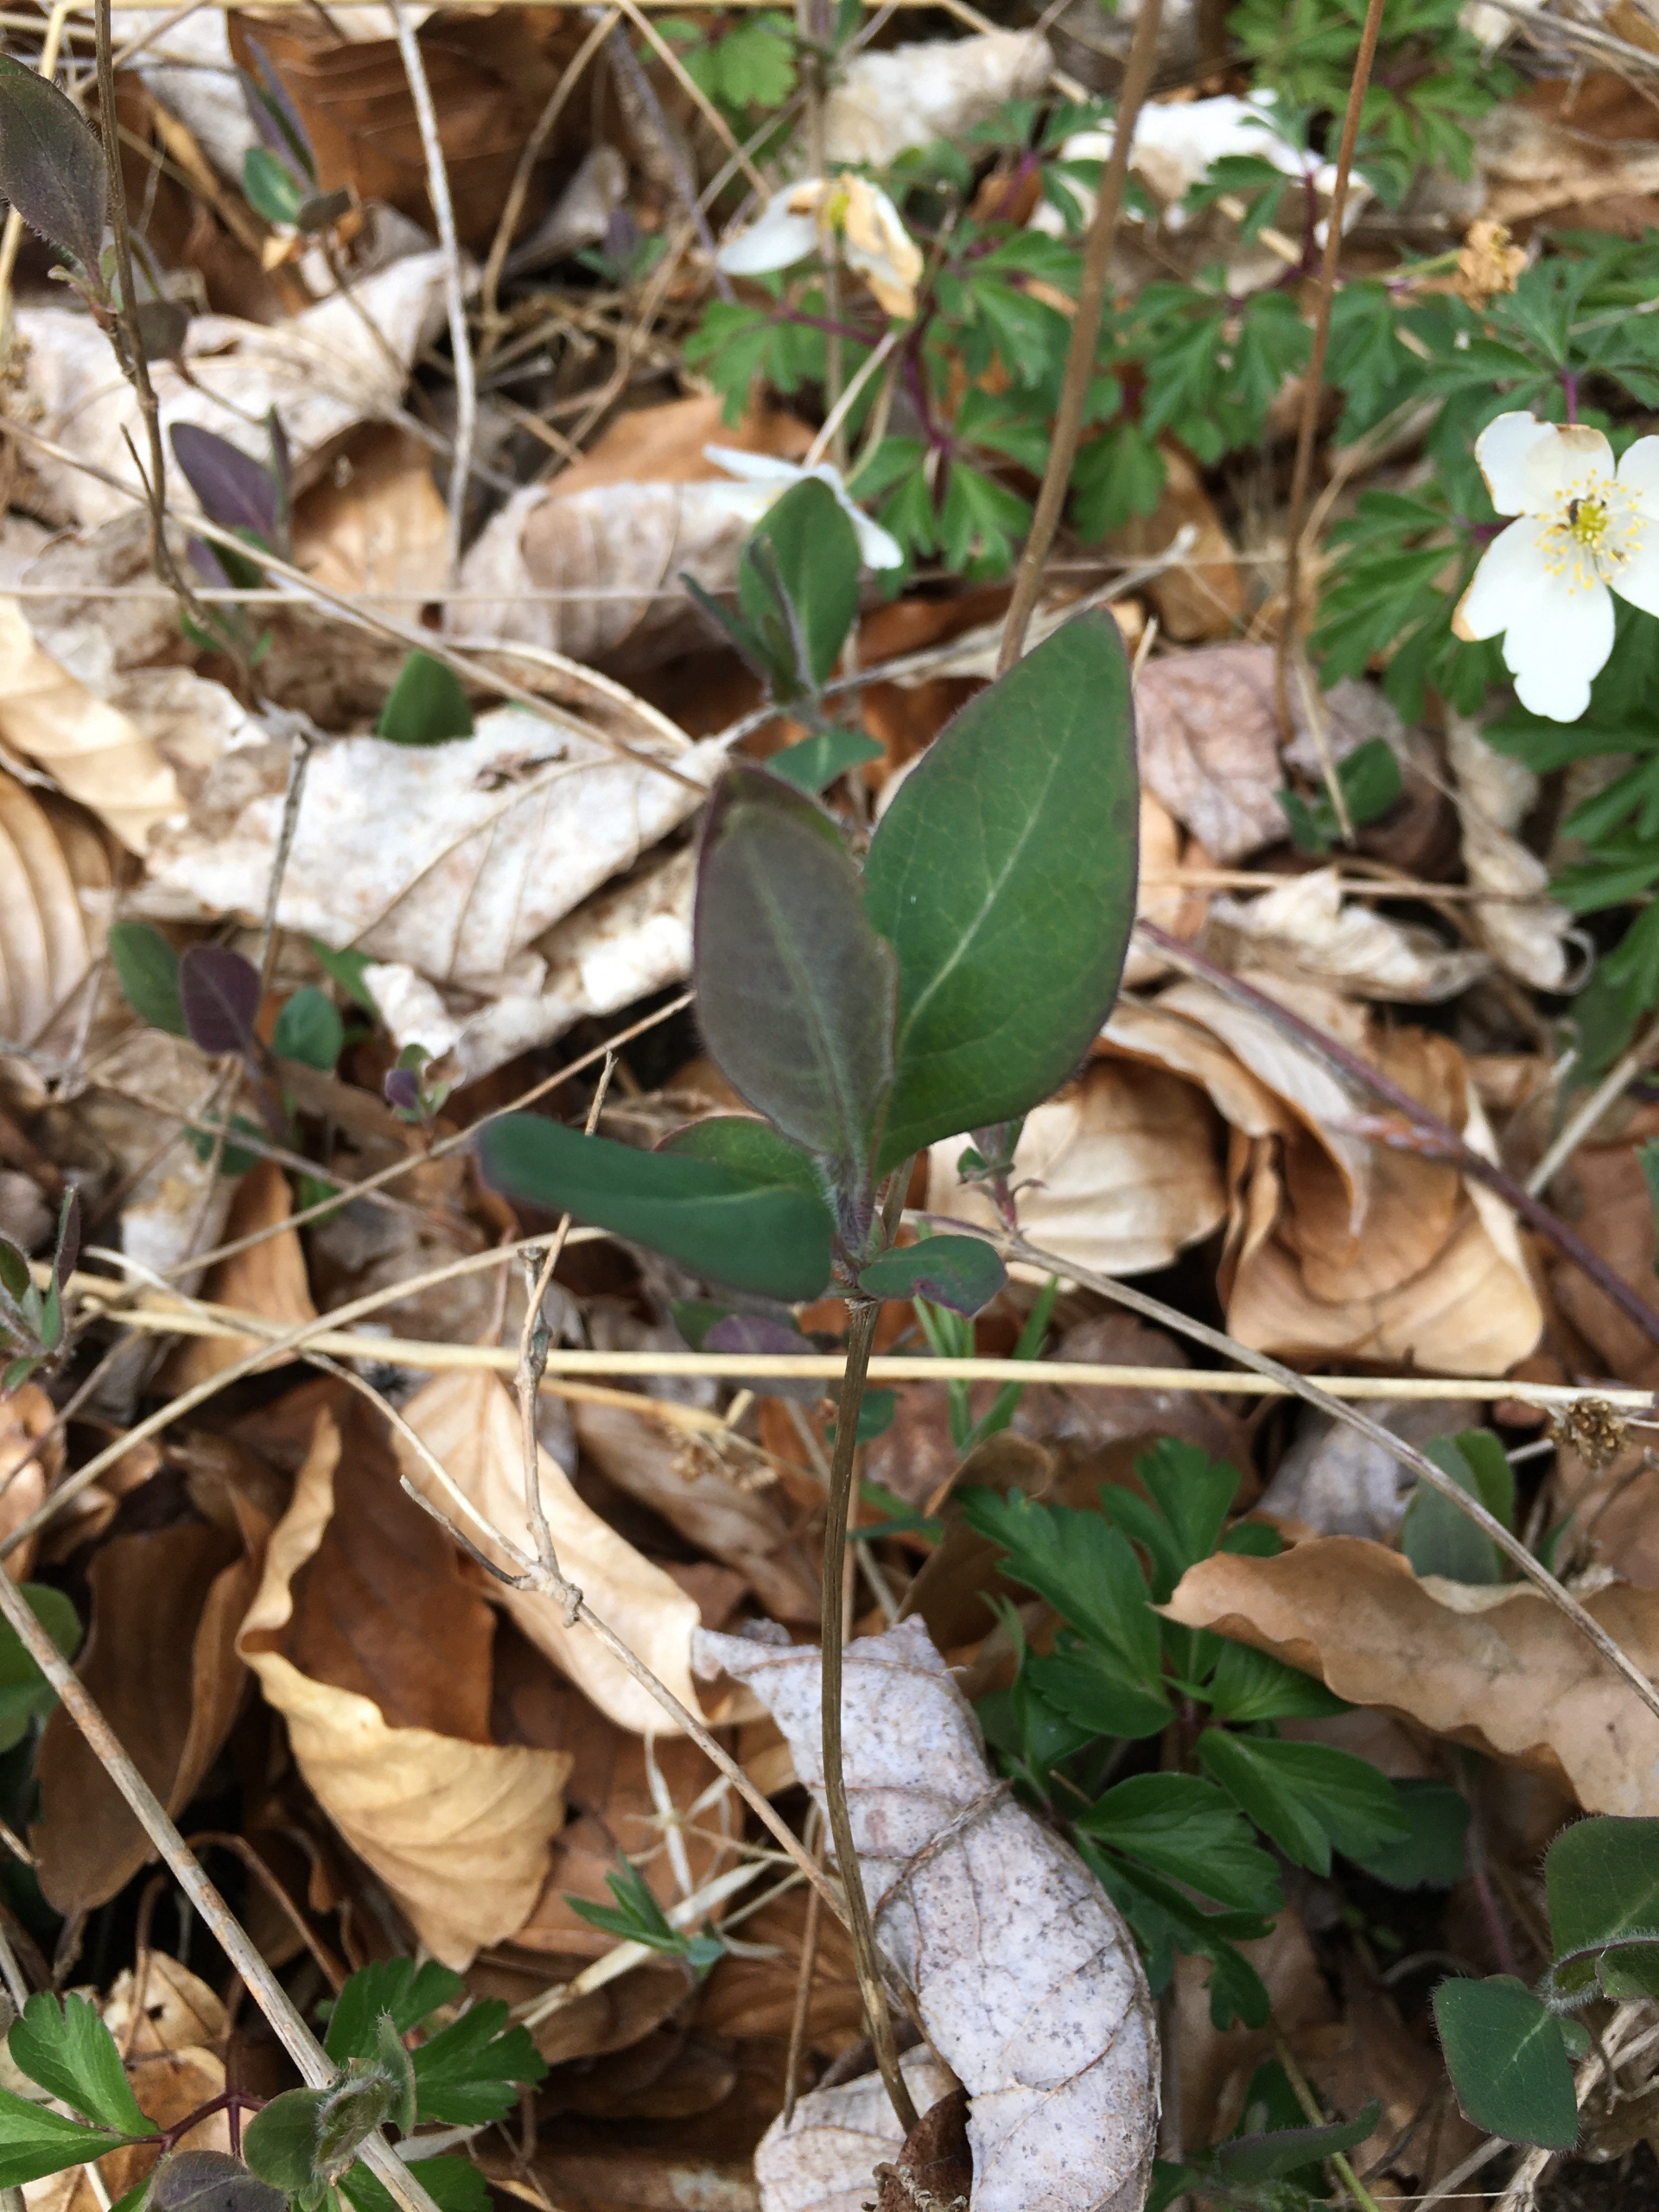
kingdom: Plantae
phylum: Tracheophyta
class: Magnoliopsida
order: Dipsacales
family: Caprifoliaceae
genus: Lonicera
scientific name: Lonicera periclymenum
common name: Almindelig gedeblad
